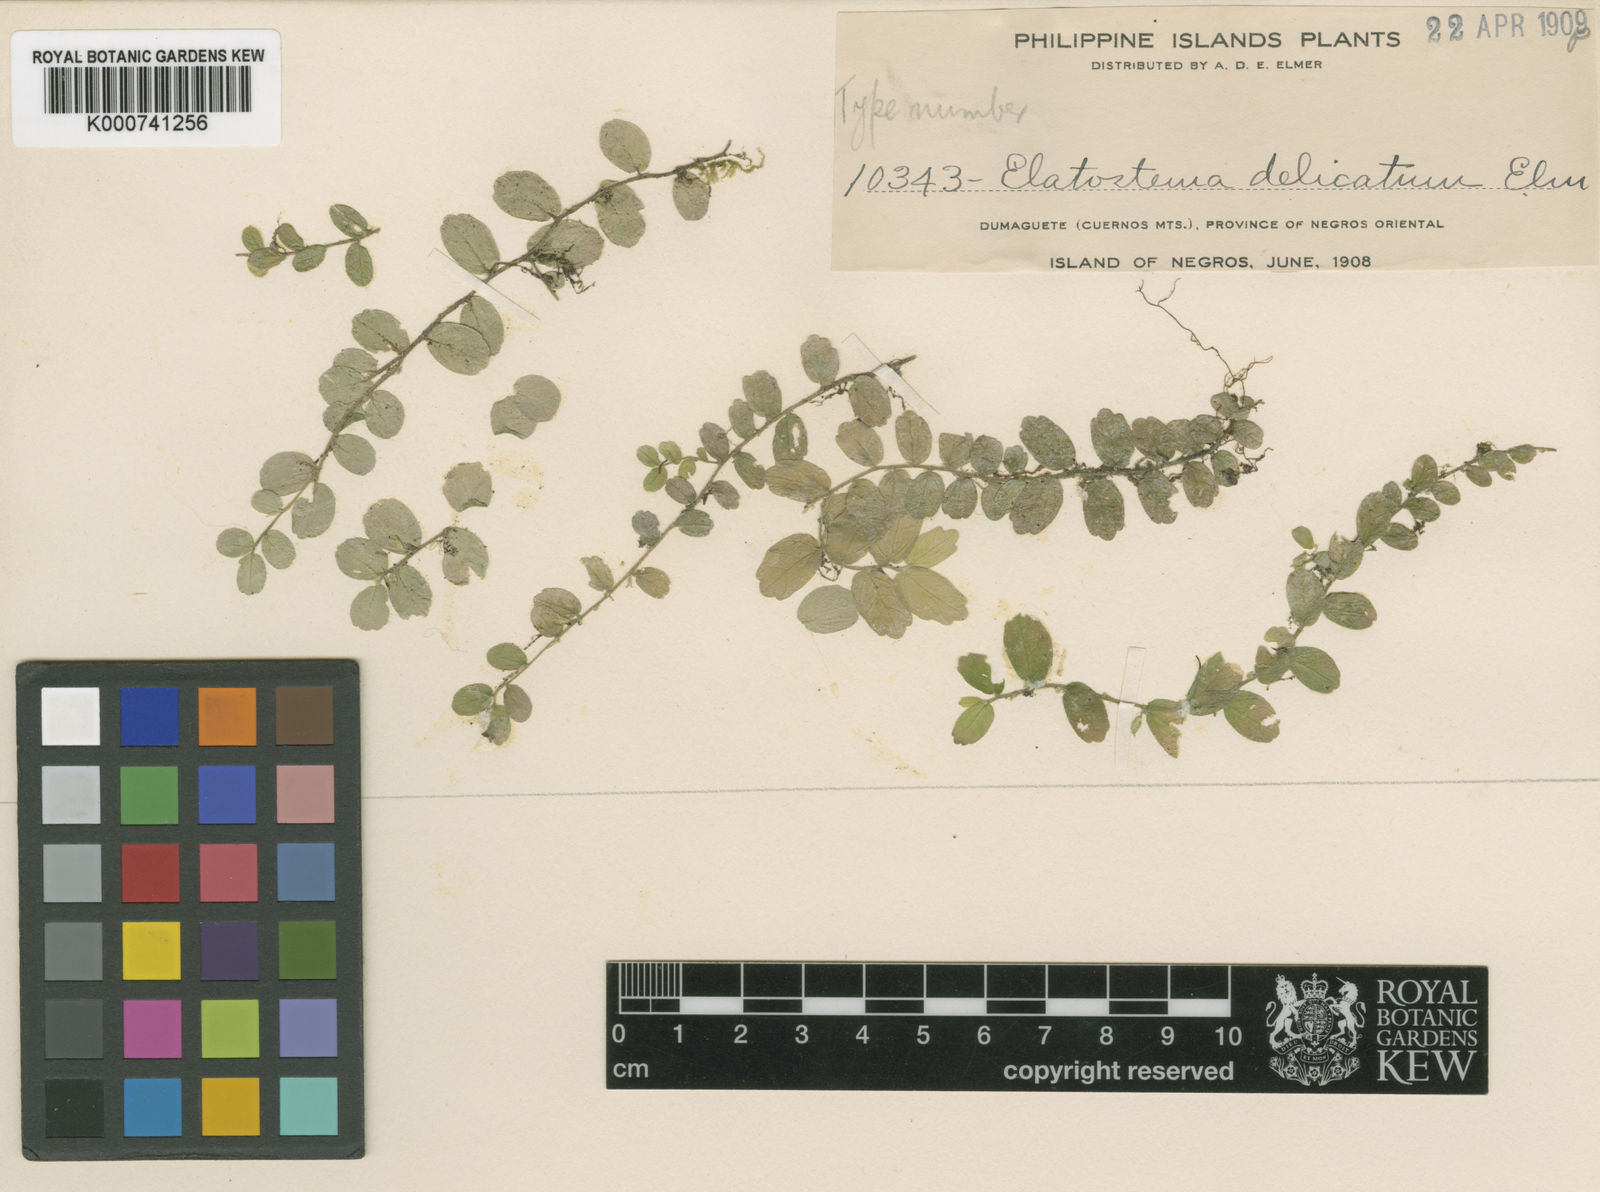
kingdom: Plantae
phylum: Tracheophyta
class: Magnoliopsida
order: Rosales
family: Urticaceae
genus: Elatostema
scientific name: Elatostema delicatulum
